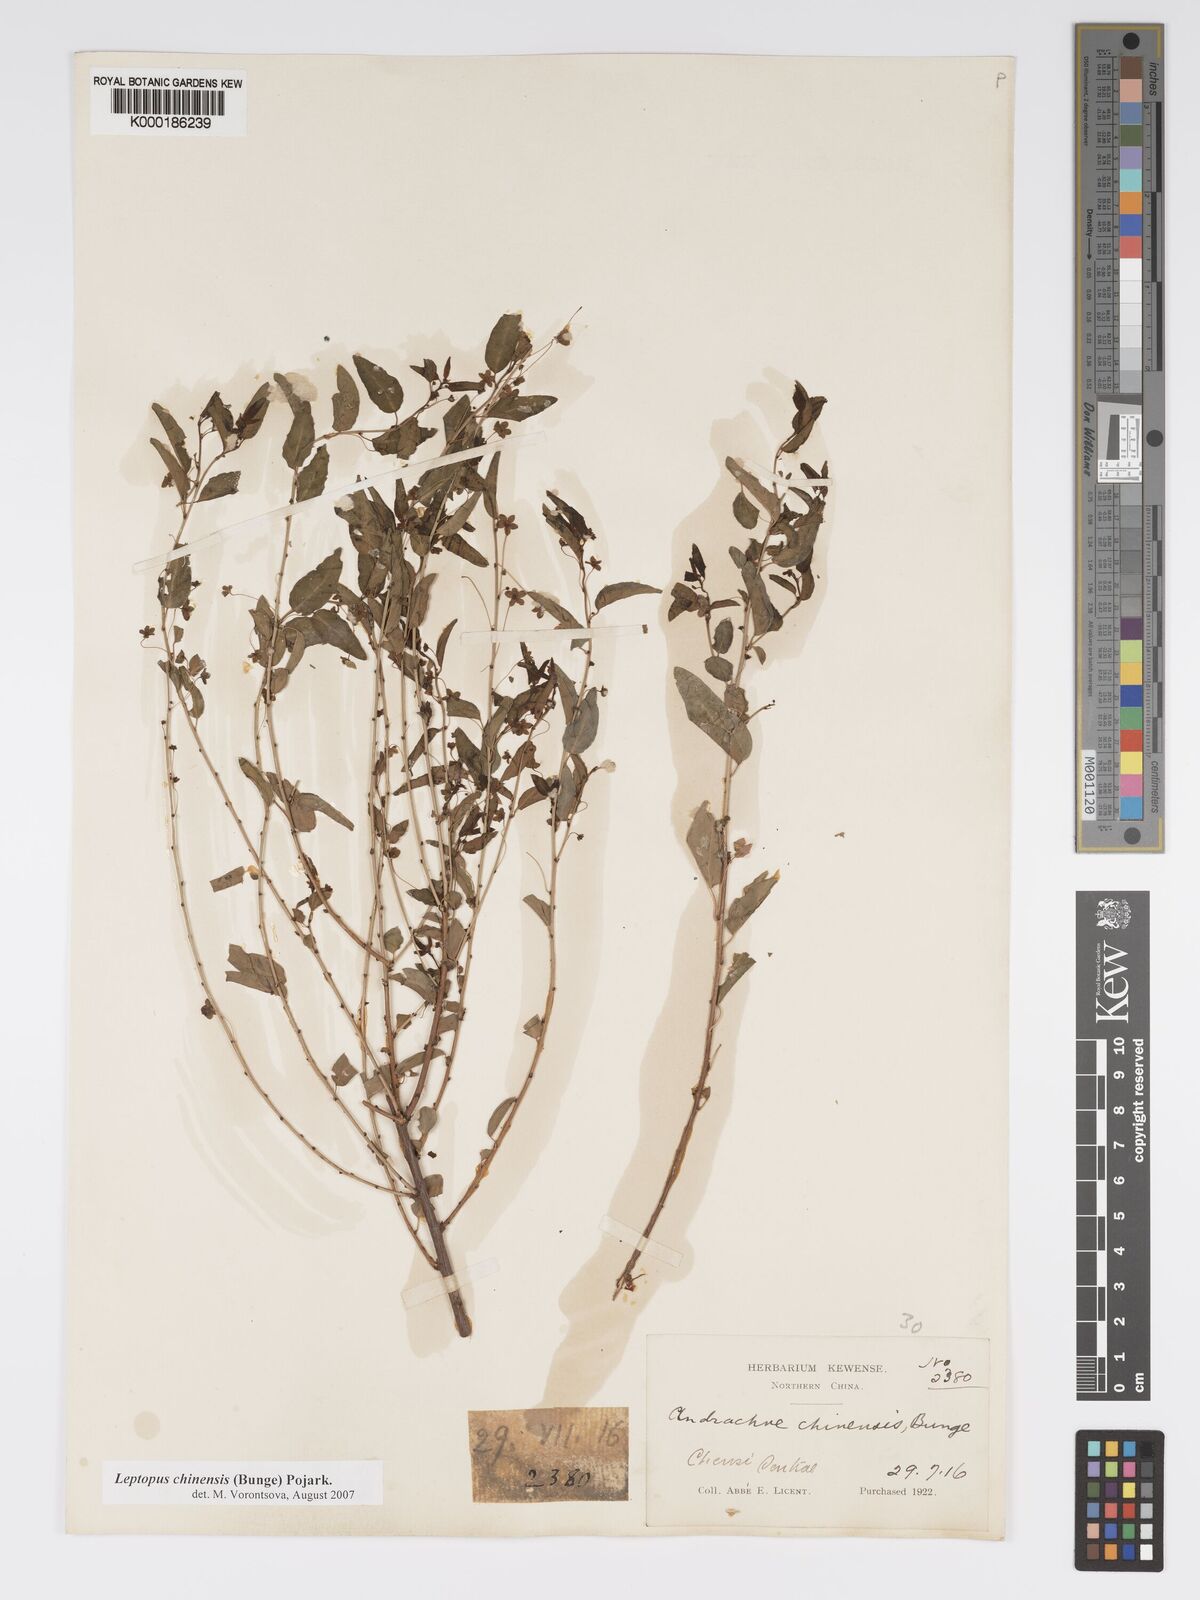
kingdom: Plantae
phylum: Tracheophyta
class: Magnoliopsida
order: Malpighiales
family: Phyllanthaceae
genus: Leptopus
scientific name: Leptopus chinensis
